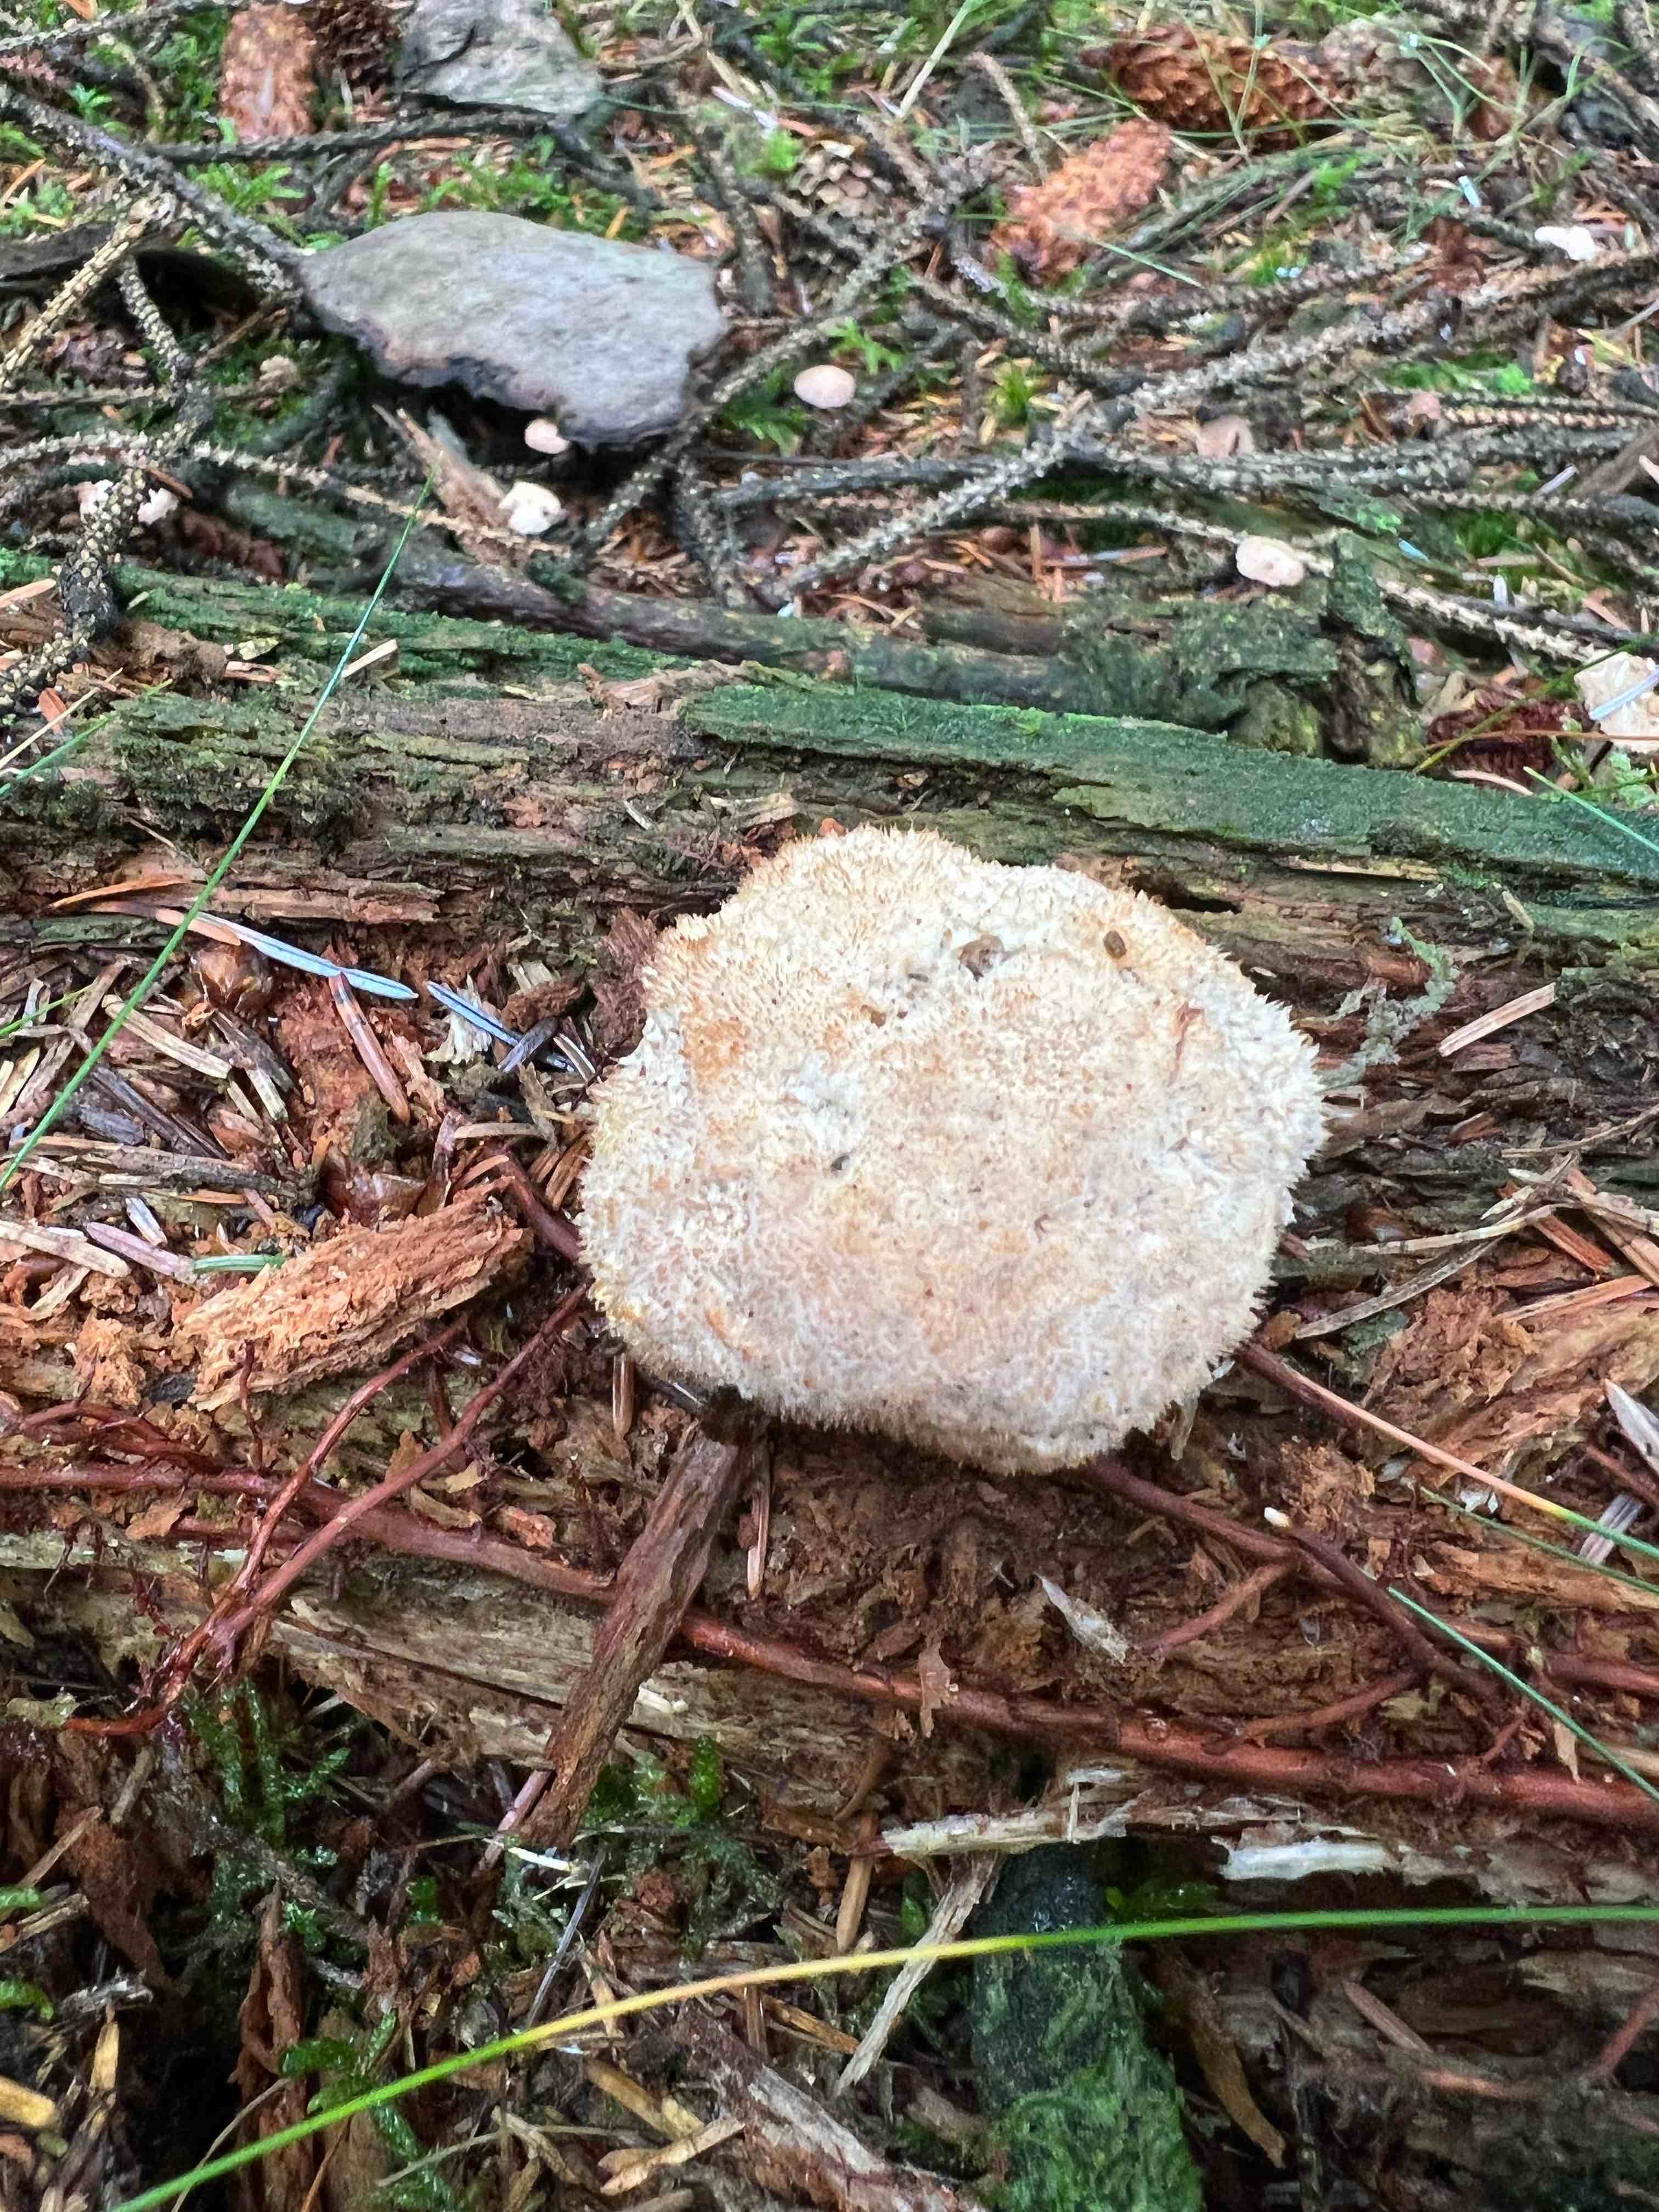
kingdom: Fungi
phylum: Basidiomycota
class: Agaricomycetes
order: Polyporales
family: Dacryobolaceae
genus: Postia
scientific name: Postia ptychogaster
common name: støvende kødporesvamp
